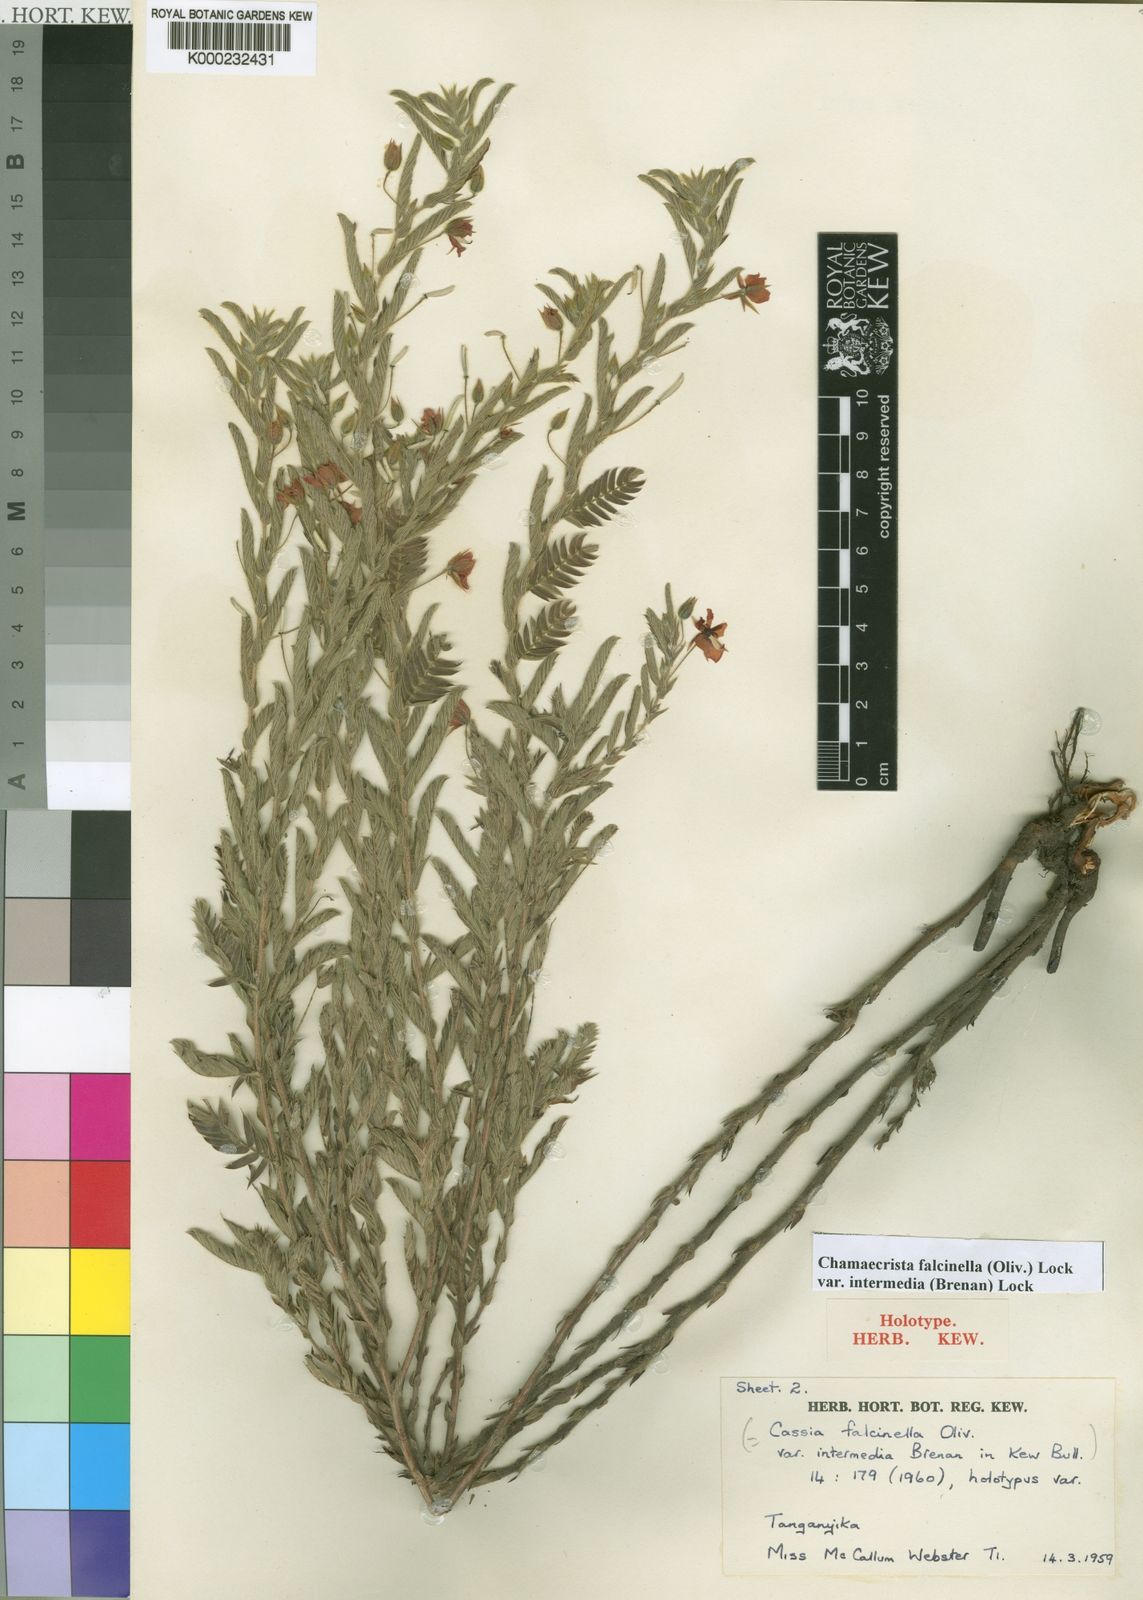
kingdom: Plantae
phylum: Tracheophyta
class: Magnoliopsida
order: Fabales
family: Fabaceae
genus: Chamaecrista
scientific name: Chamaecrista falcinella
